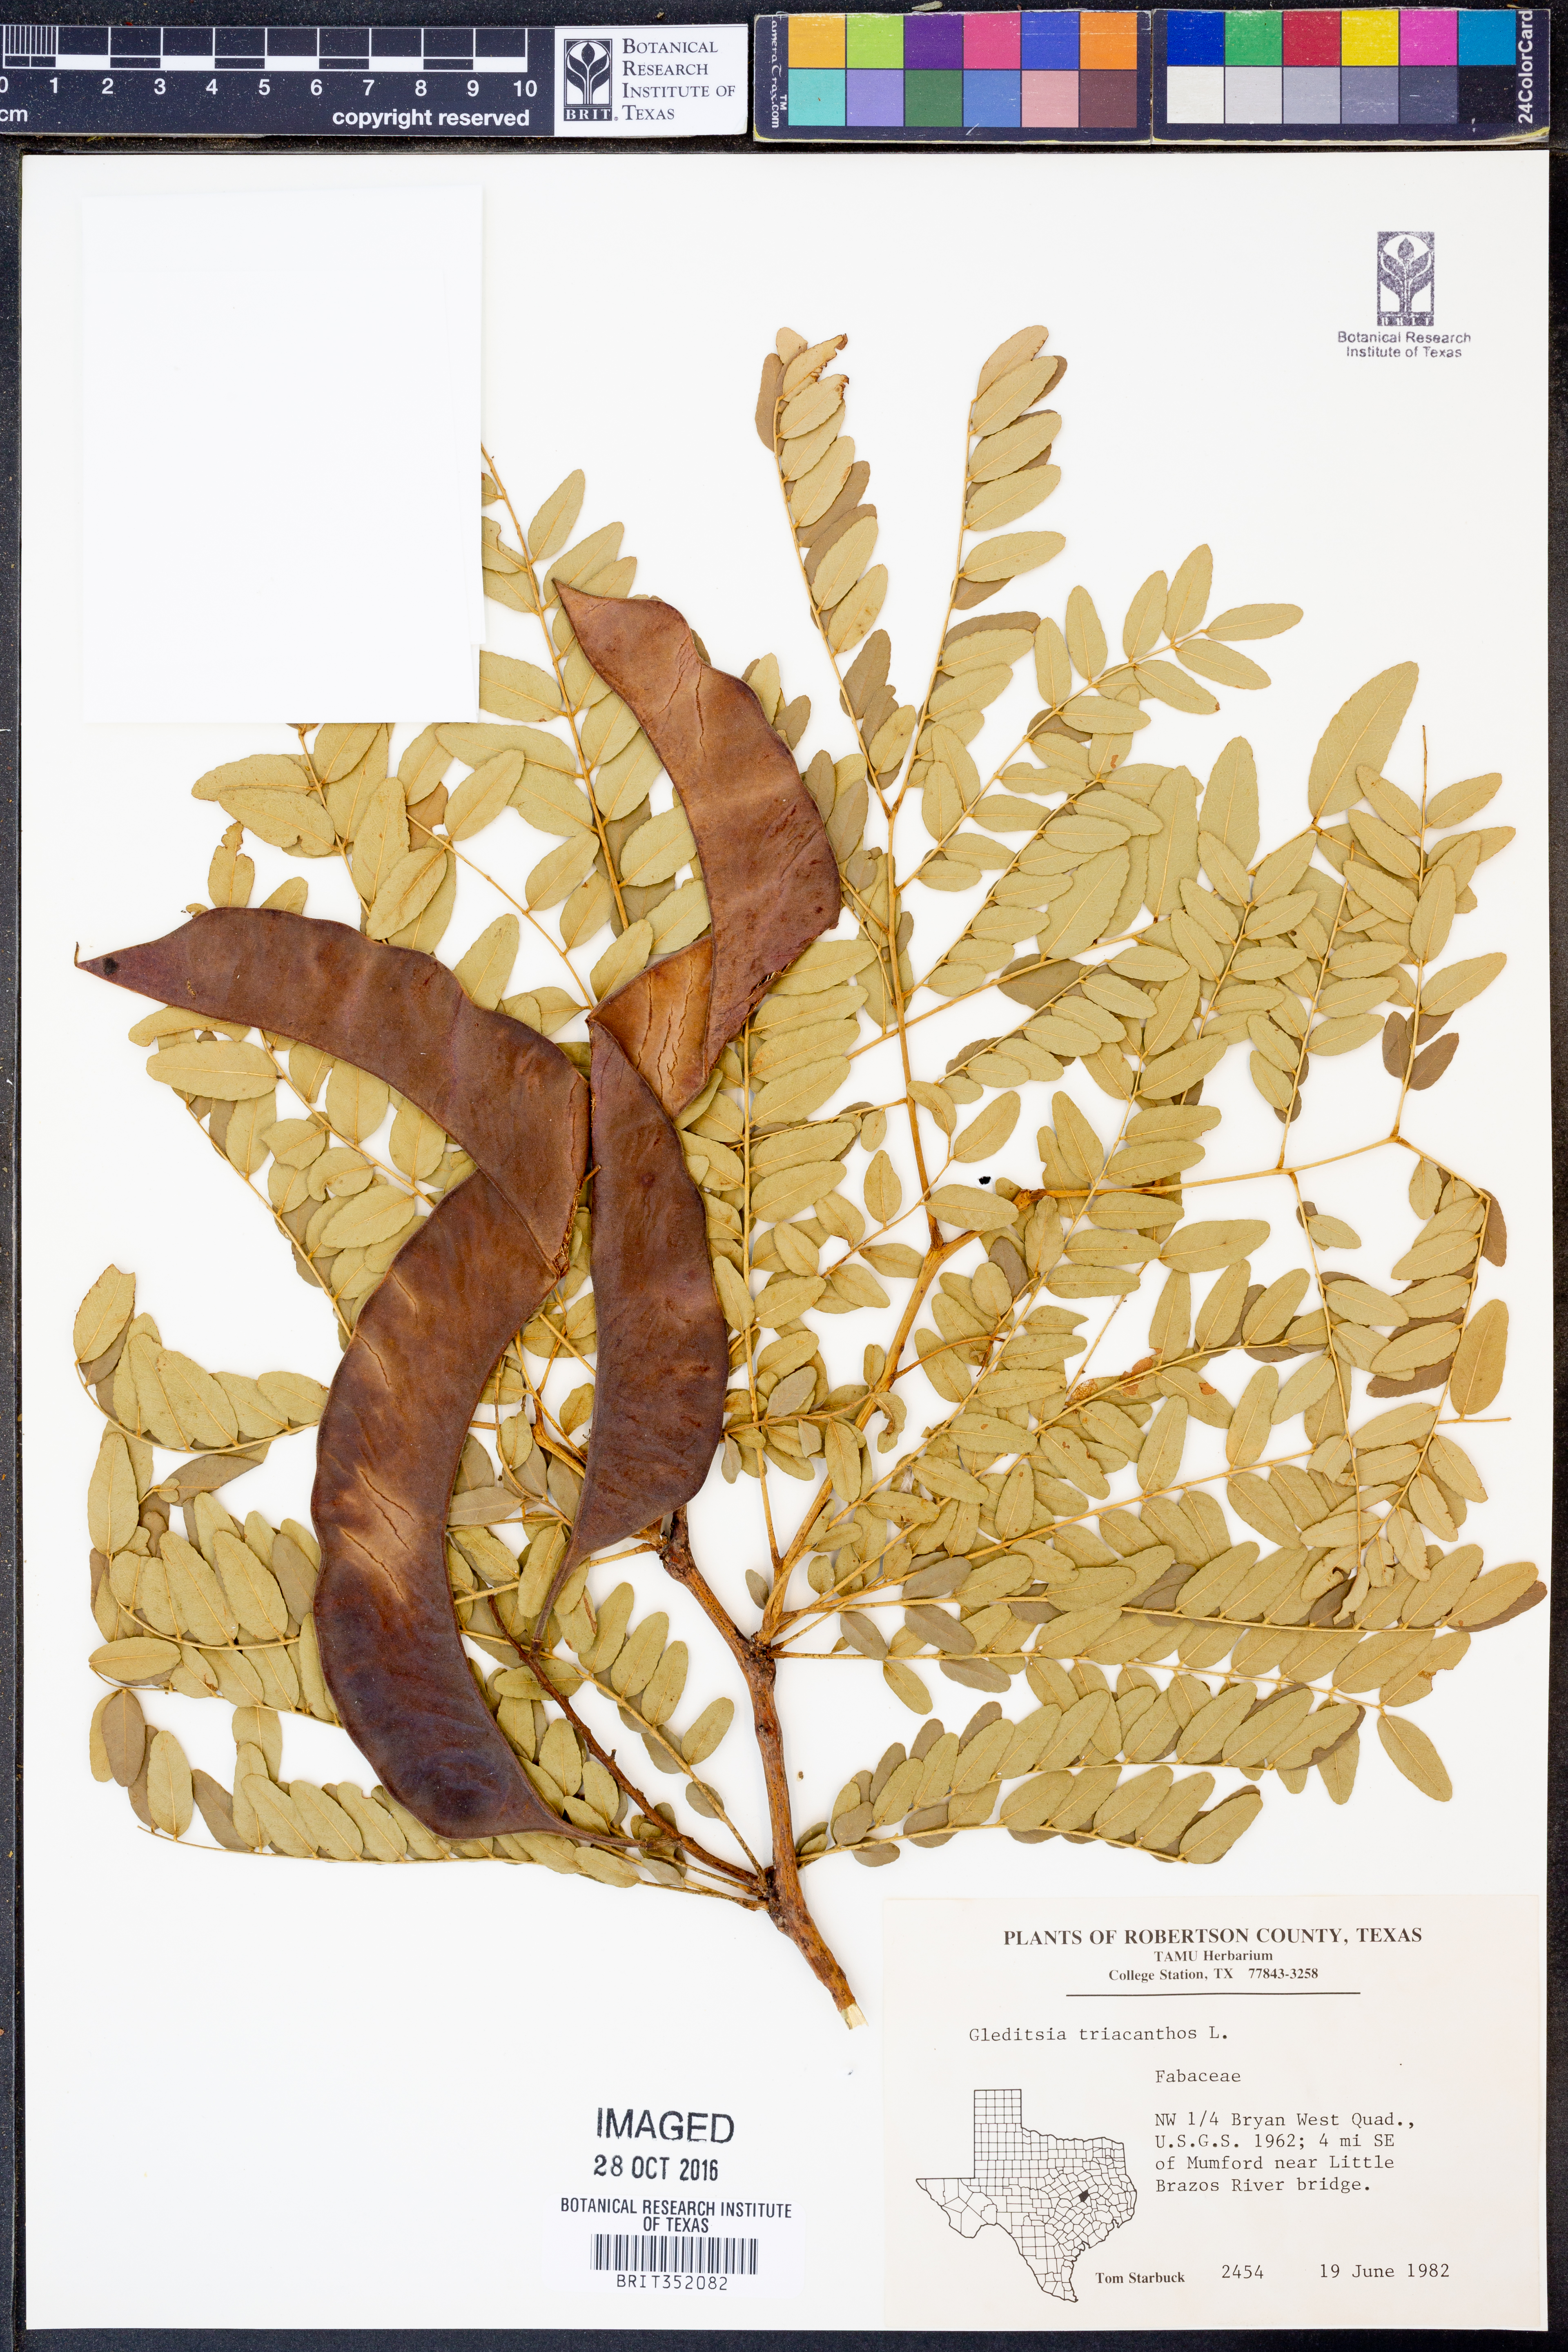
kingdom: Plantae
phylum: Tracheophyta
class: Magnoliopsida
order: Fabales
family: Fabaceae
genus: Gleditsia
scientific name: Gleditsia triacanthos
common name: Common honeylocust
